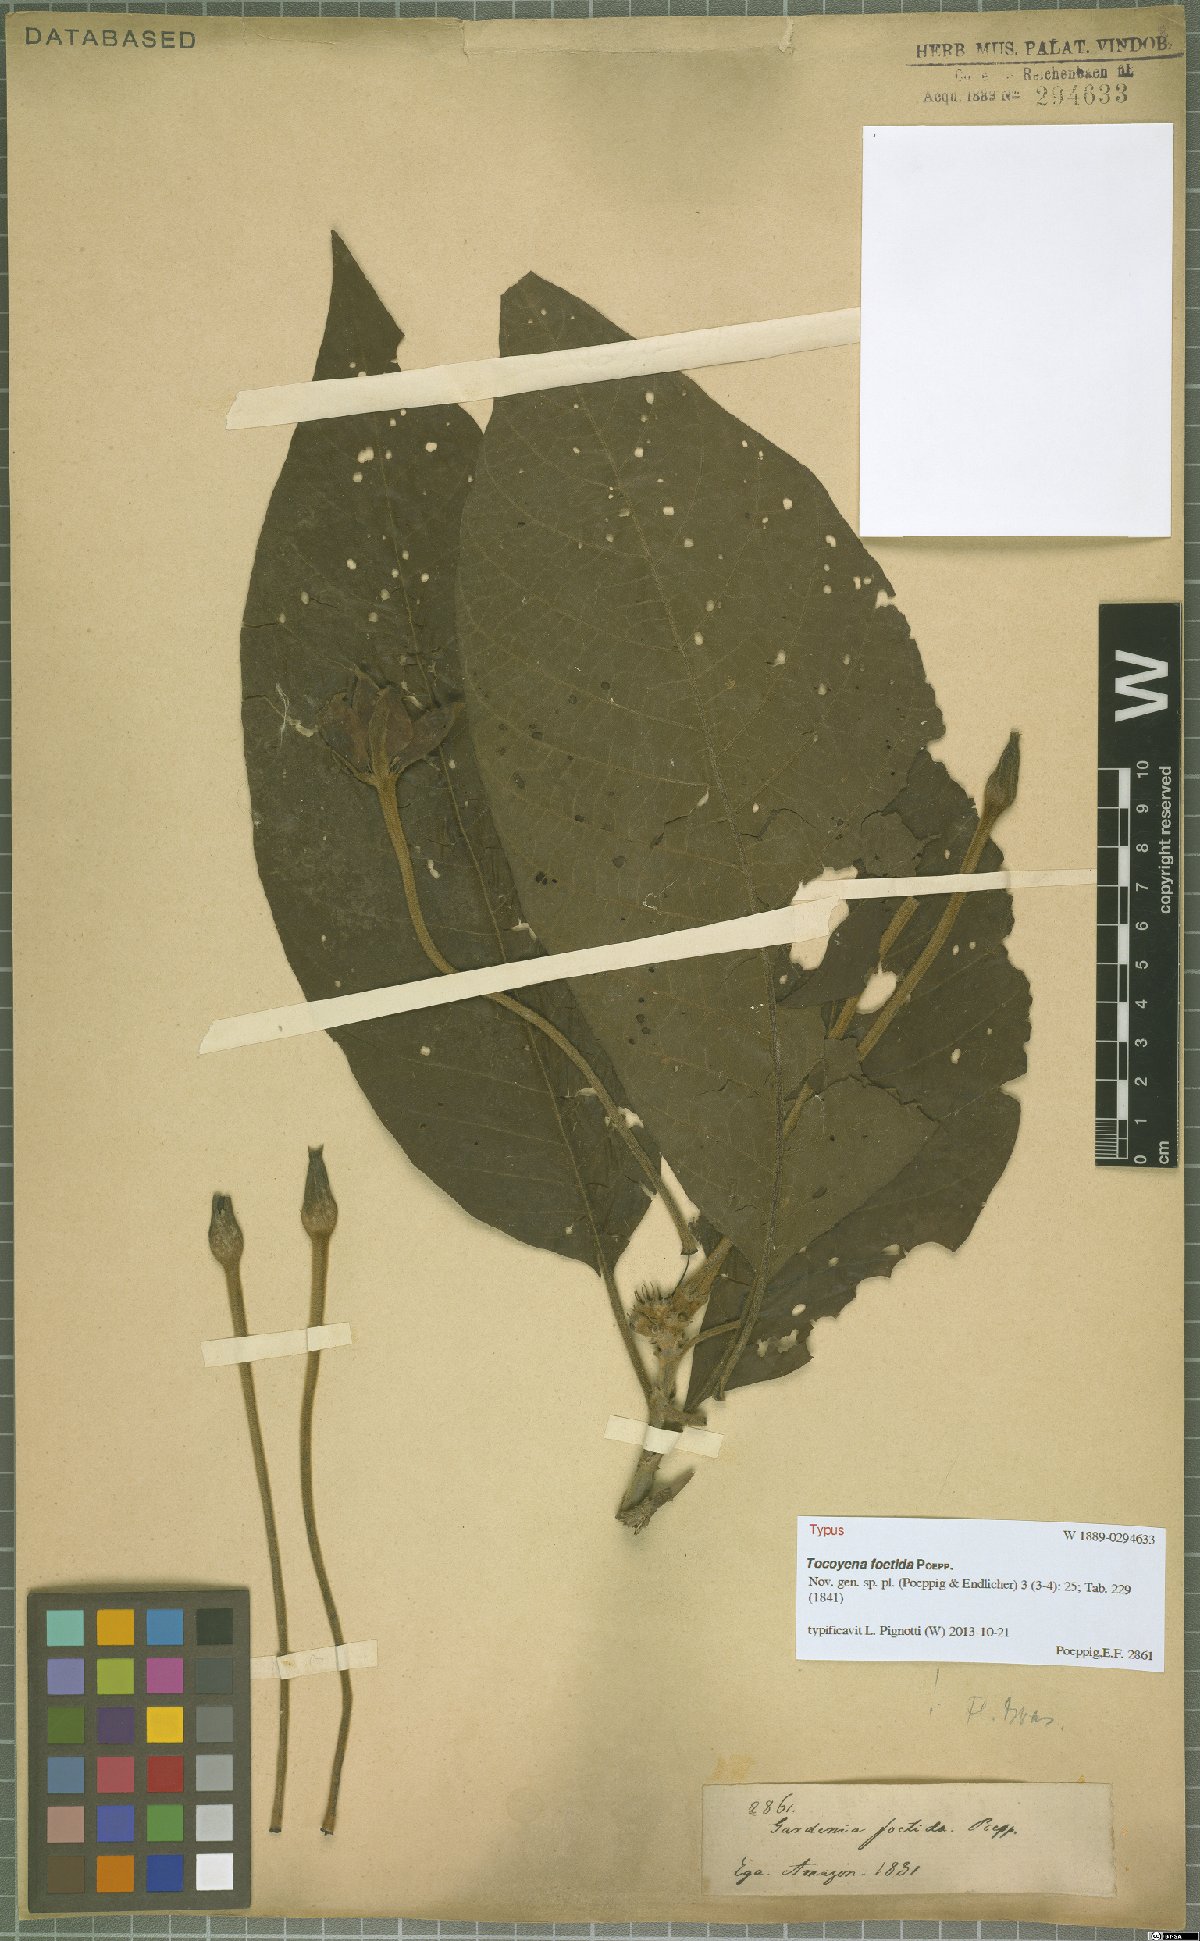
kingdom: Plantae
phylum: Tracheophyta
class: Magnoliopsida
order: Gentianales
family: Rubiaceae
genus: Tocoyena
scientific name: Tocoyena foetida
